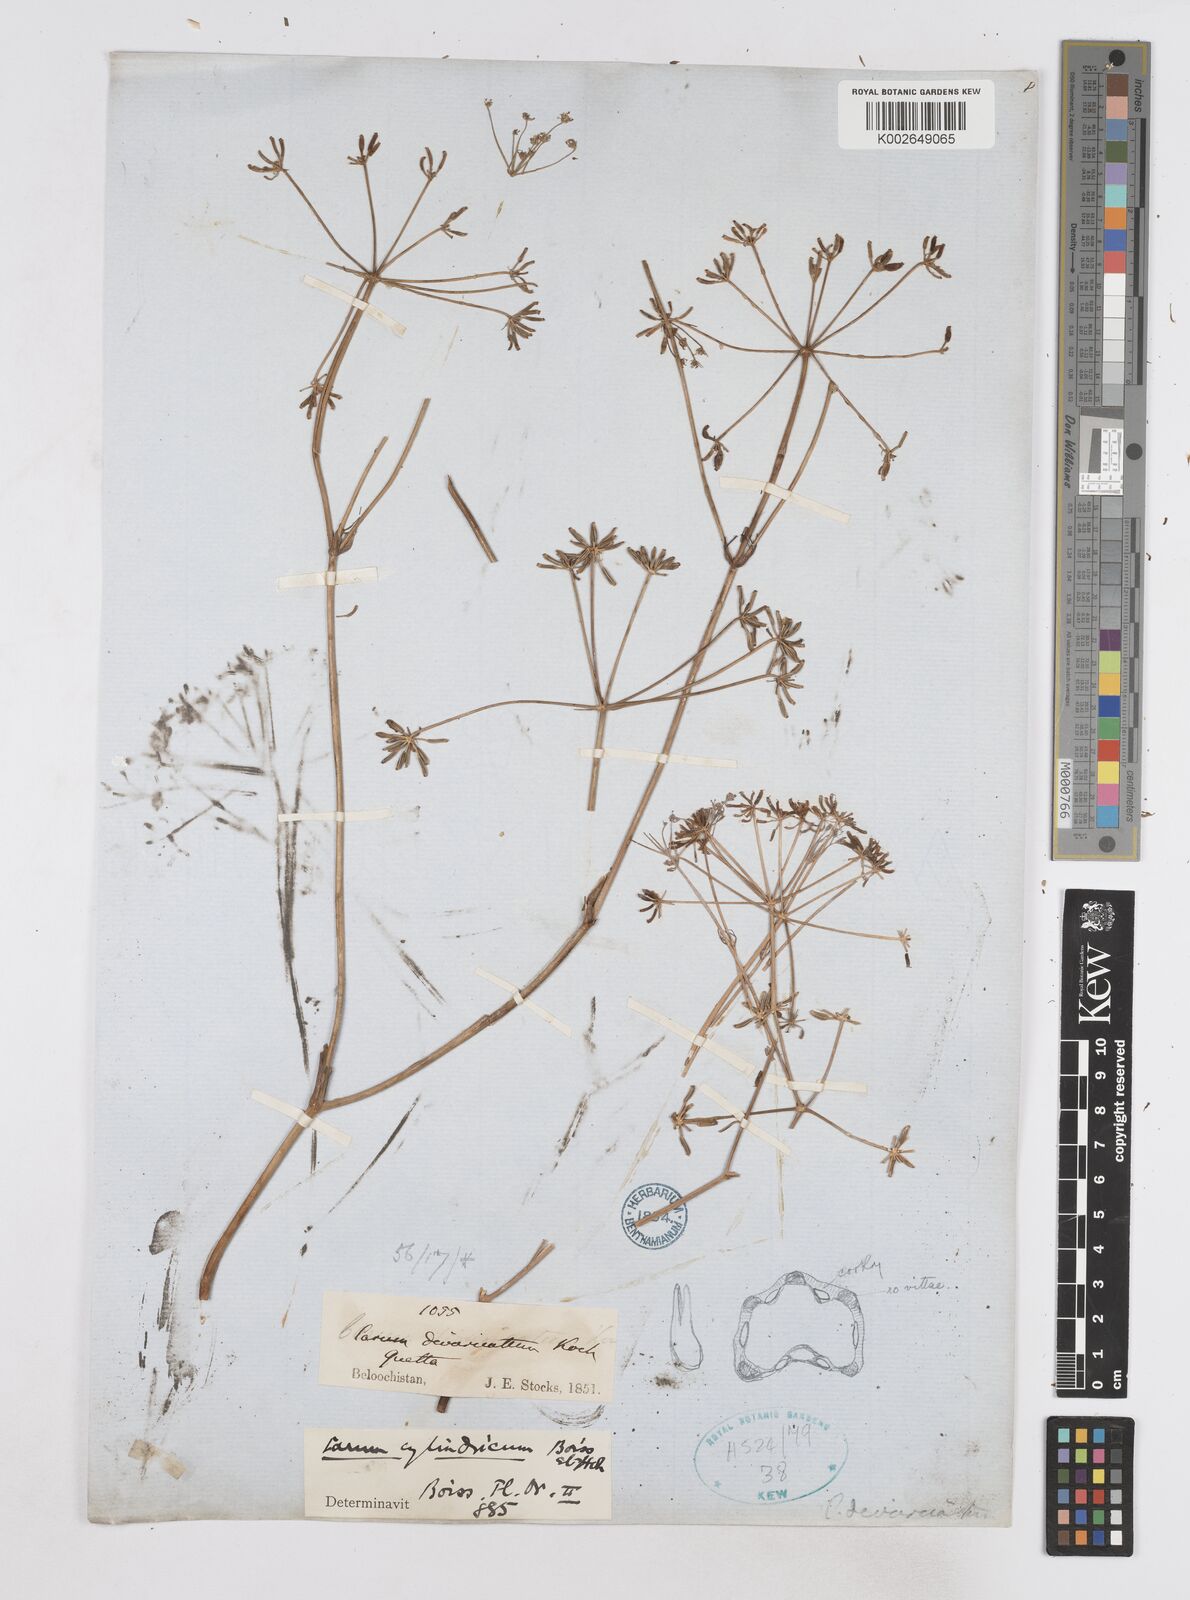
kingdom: Plantae
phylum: Tracheophyta
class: Magnoliopsida
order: Apiales
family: Apiaceae
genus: Elwendia
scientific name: Elwendia cylindrica
